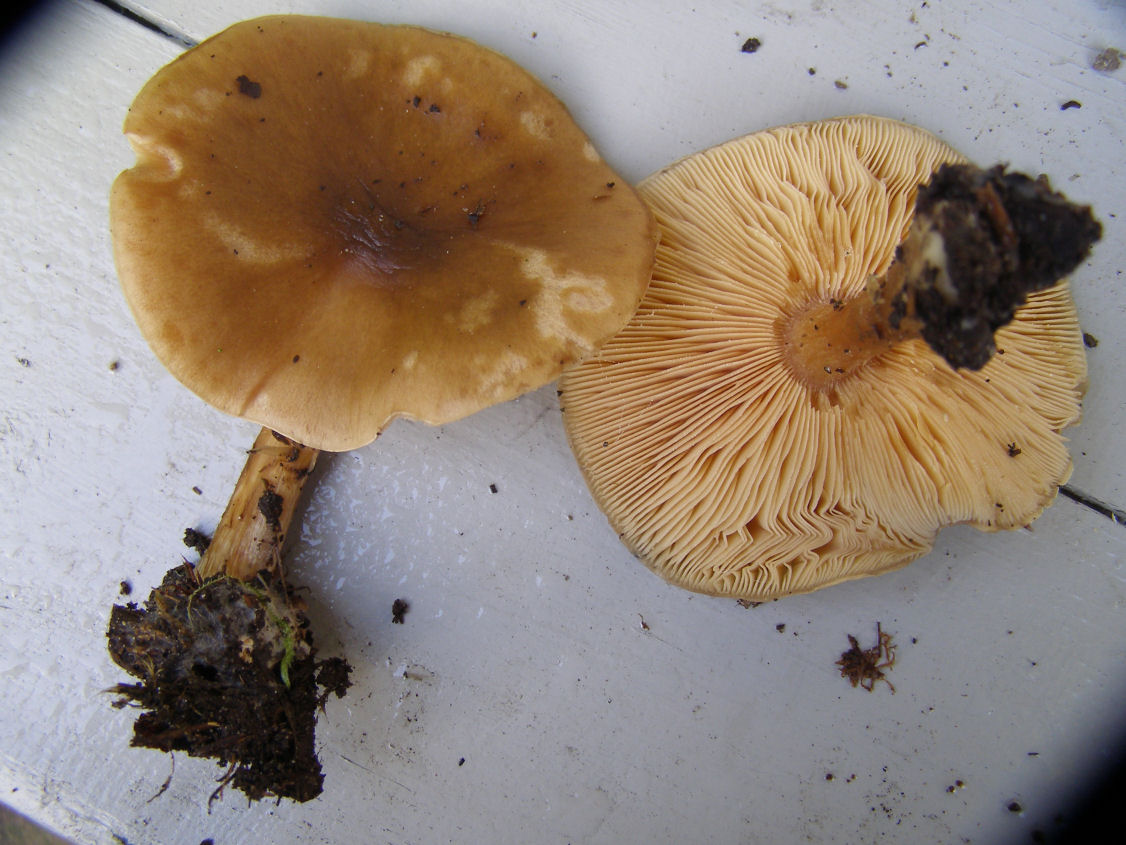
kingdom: Fungi
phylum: Basidiomycota
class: Agaricomycetes
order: Agaricales
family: Tricholomataceae
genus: Melanoleuca
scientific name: Melanoleuca cognata
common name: gyldengrå munkehat
